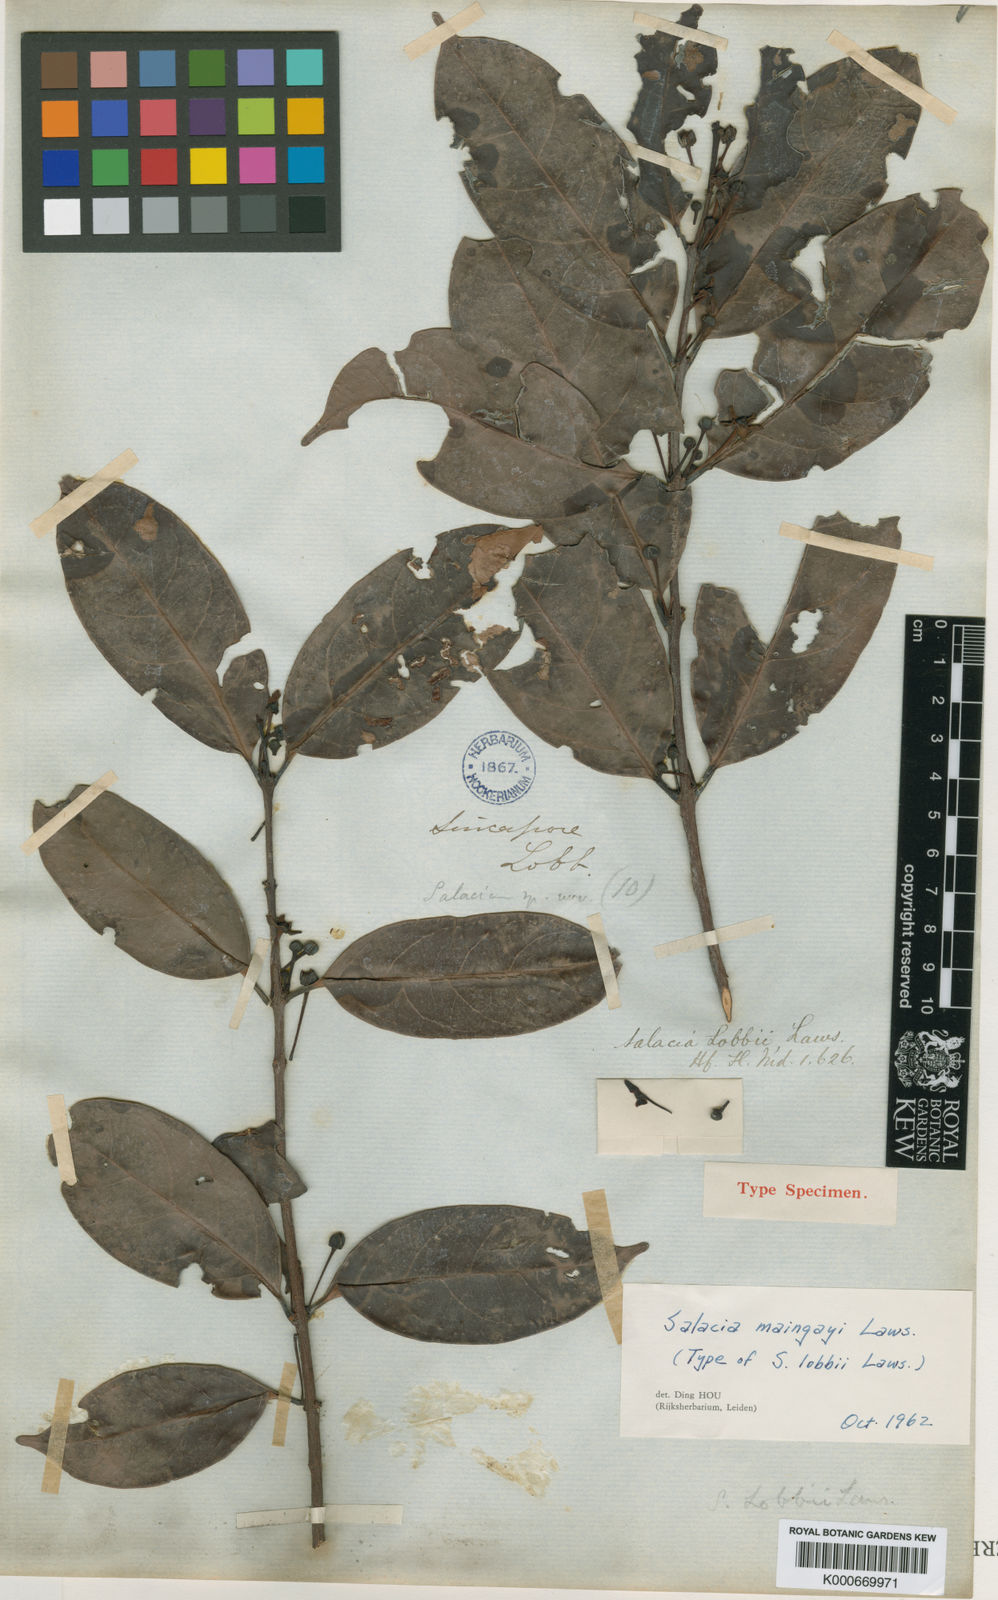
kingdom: Plantae
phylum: Tracheophyta
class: Magnoliopsida
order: Celastrales
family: Celastraceae
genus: Salacia
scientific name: Salacia maingayi
